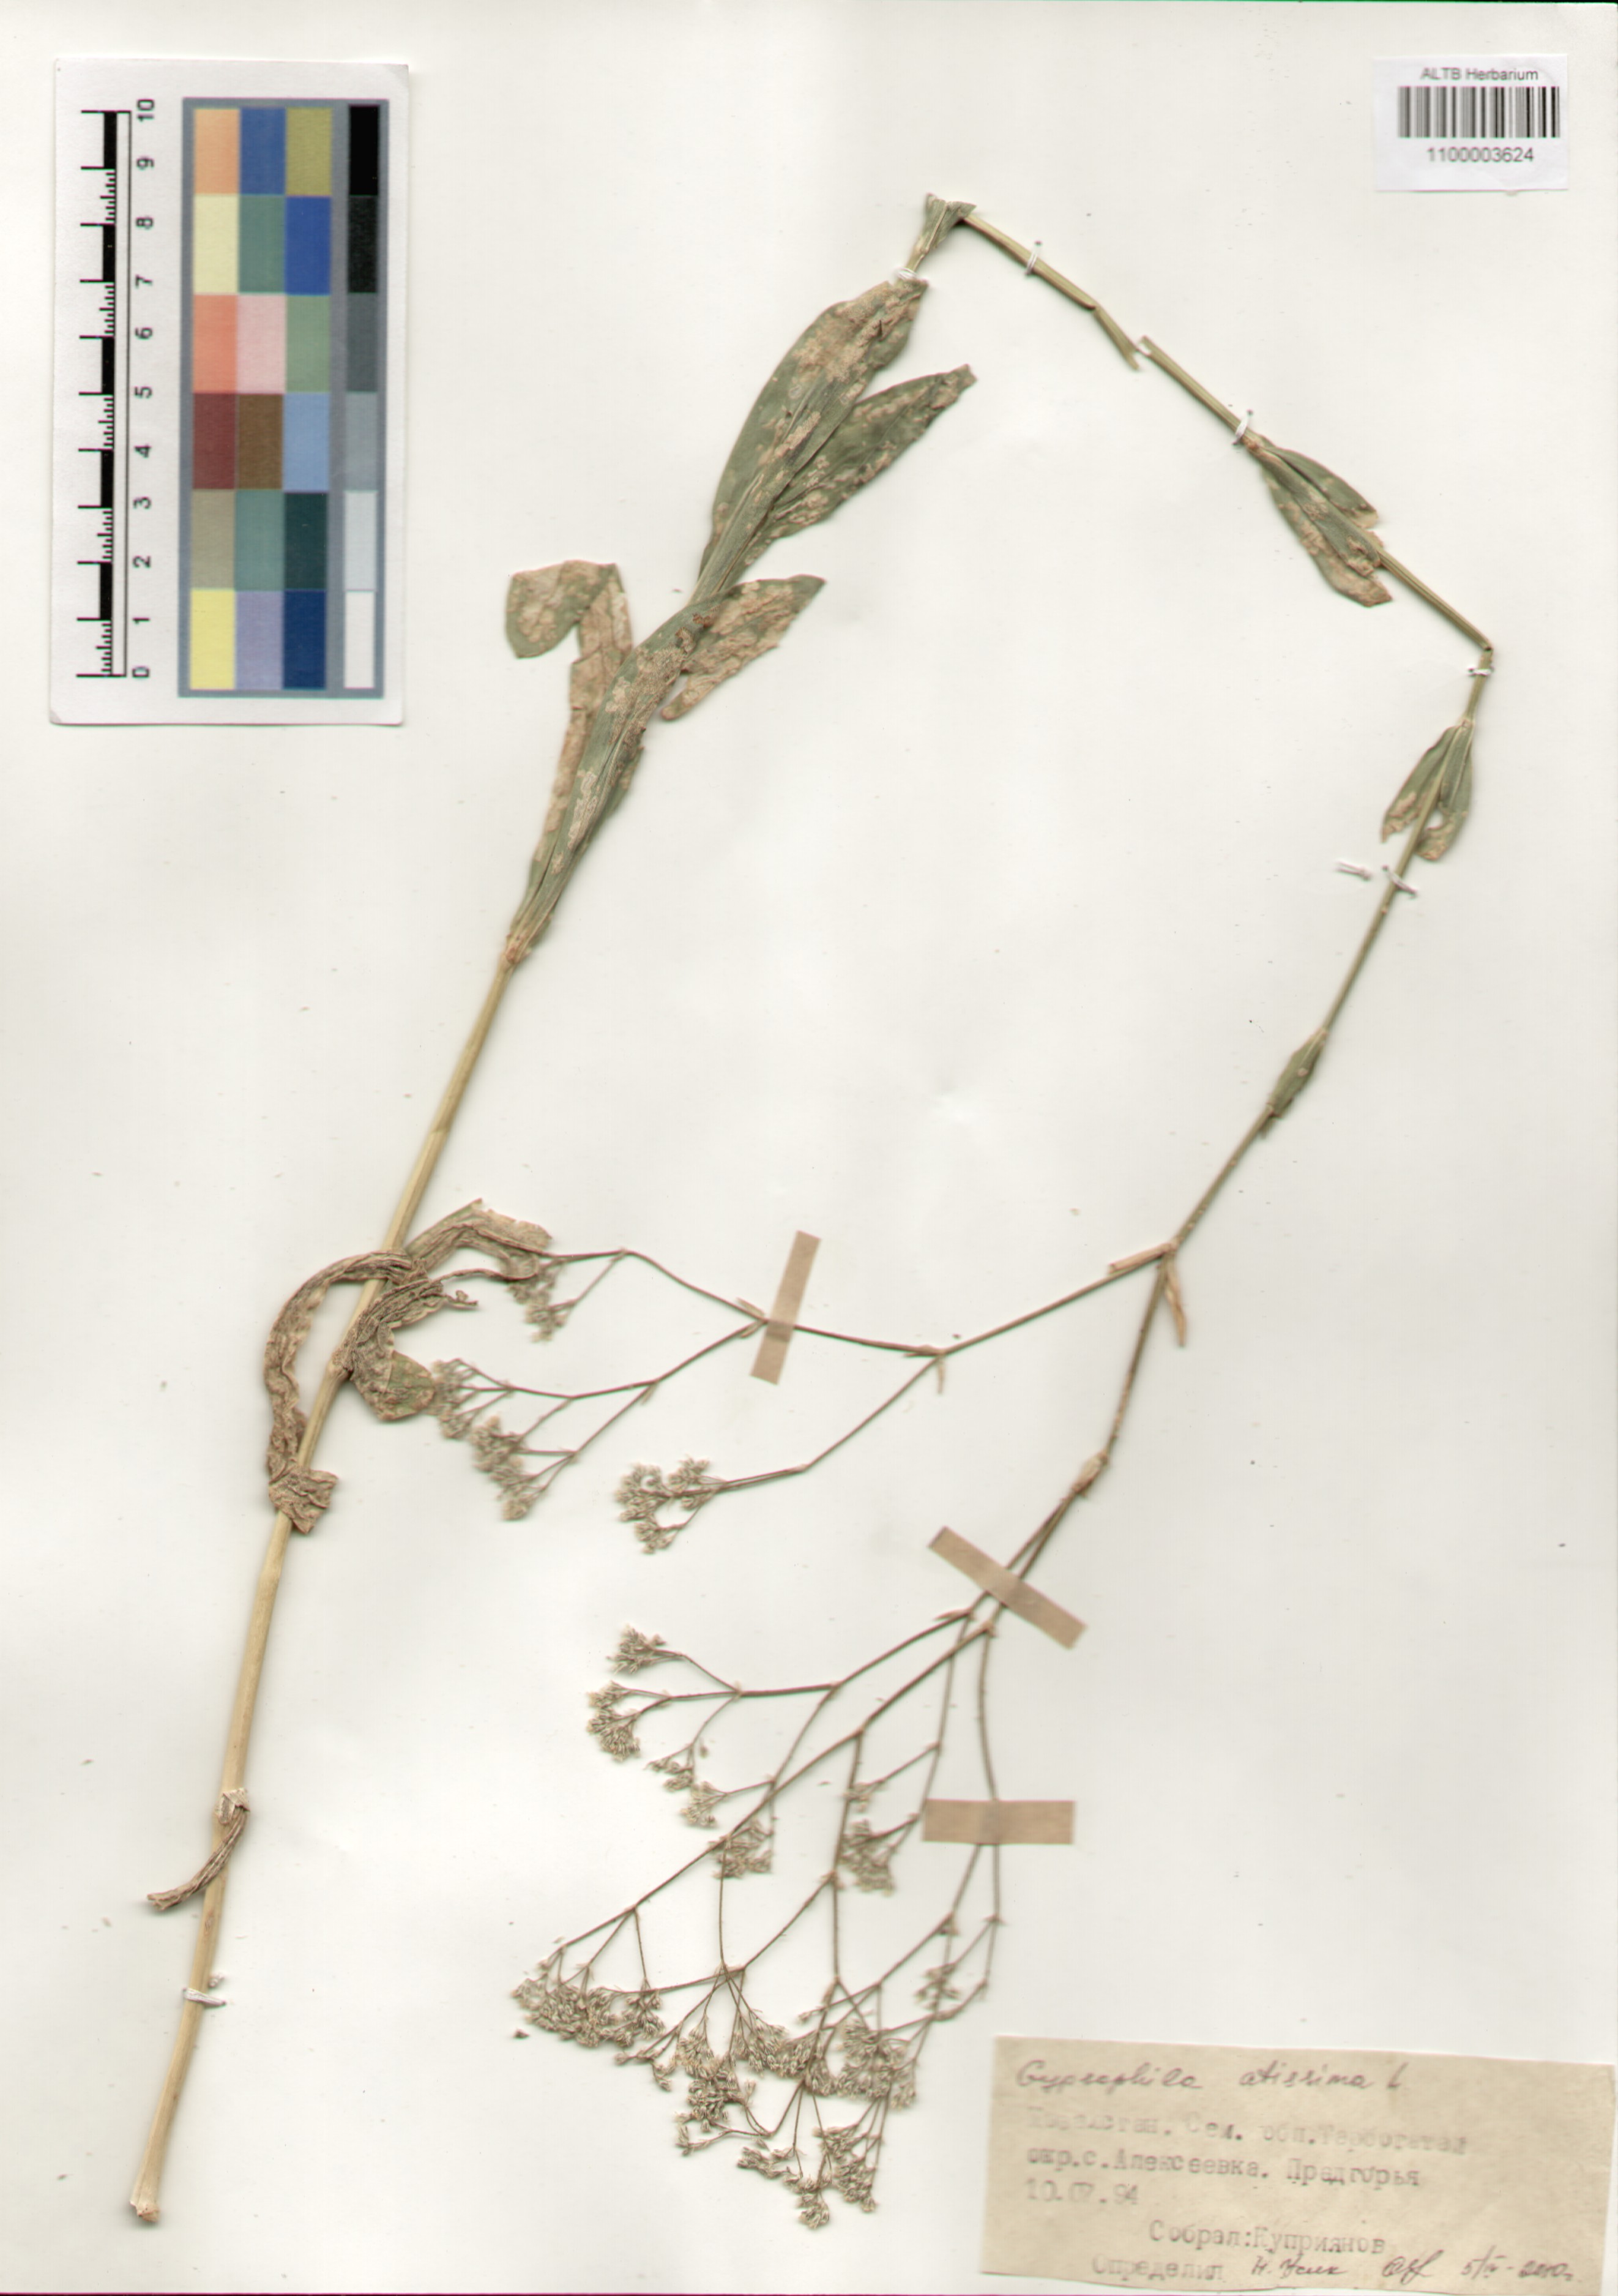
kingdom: Plantae
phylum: Tracheophyta
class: Magnoliopsida
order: Caryophyllales
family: Caryophyllaceae
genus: Gypsophila
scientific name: Gypsophila altissima
